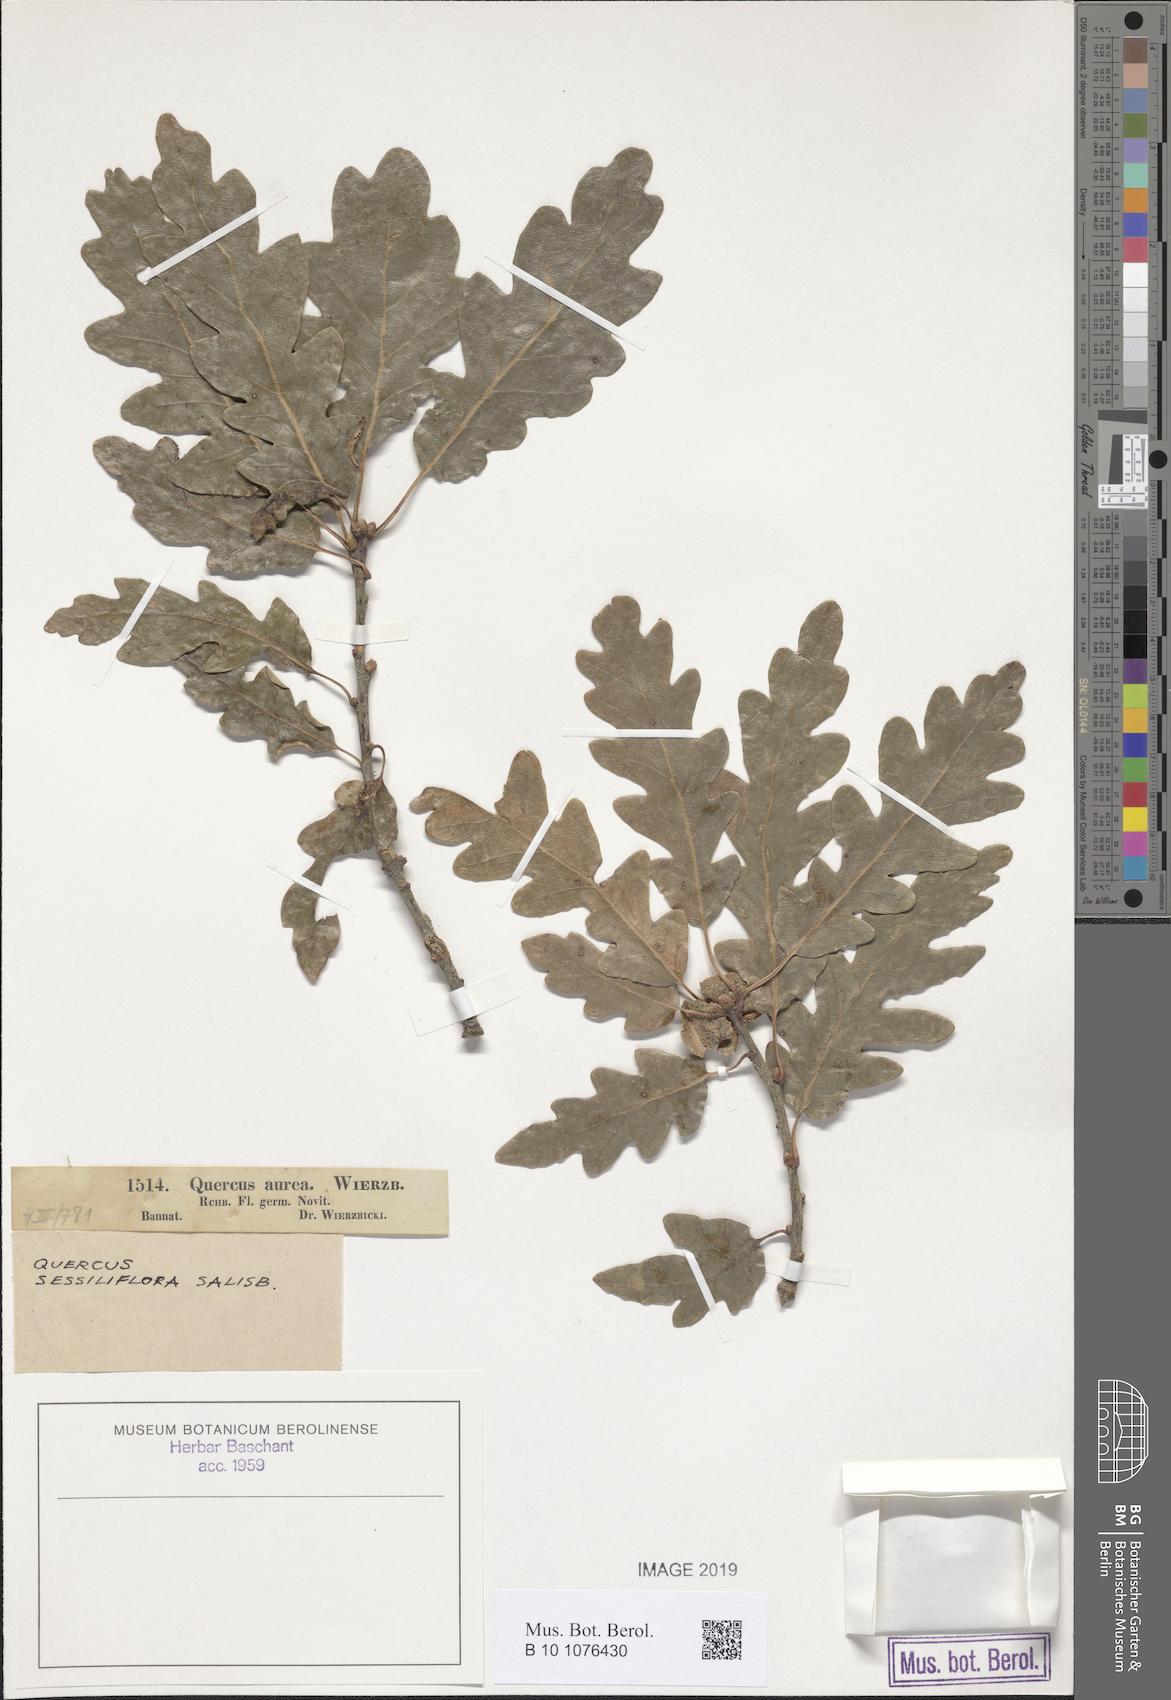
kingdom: Plantae
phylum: Tracheophyta
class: Magnoliopsida
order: Fagales
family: Fagaceae
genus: Quercus
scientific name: Quercus petraea
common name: Sessile oak
